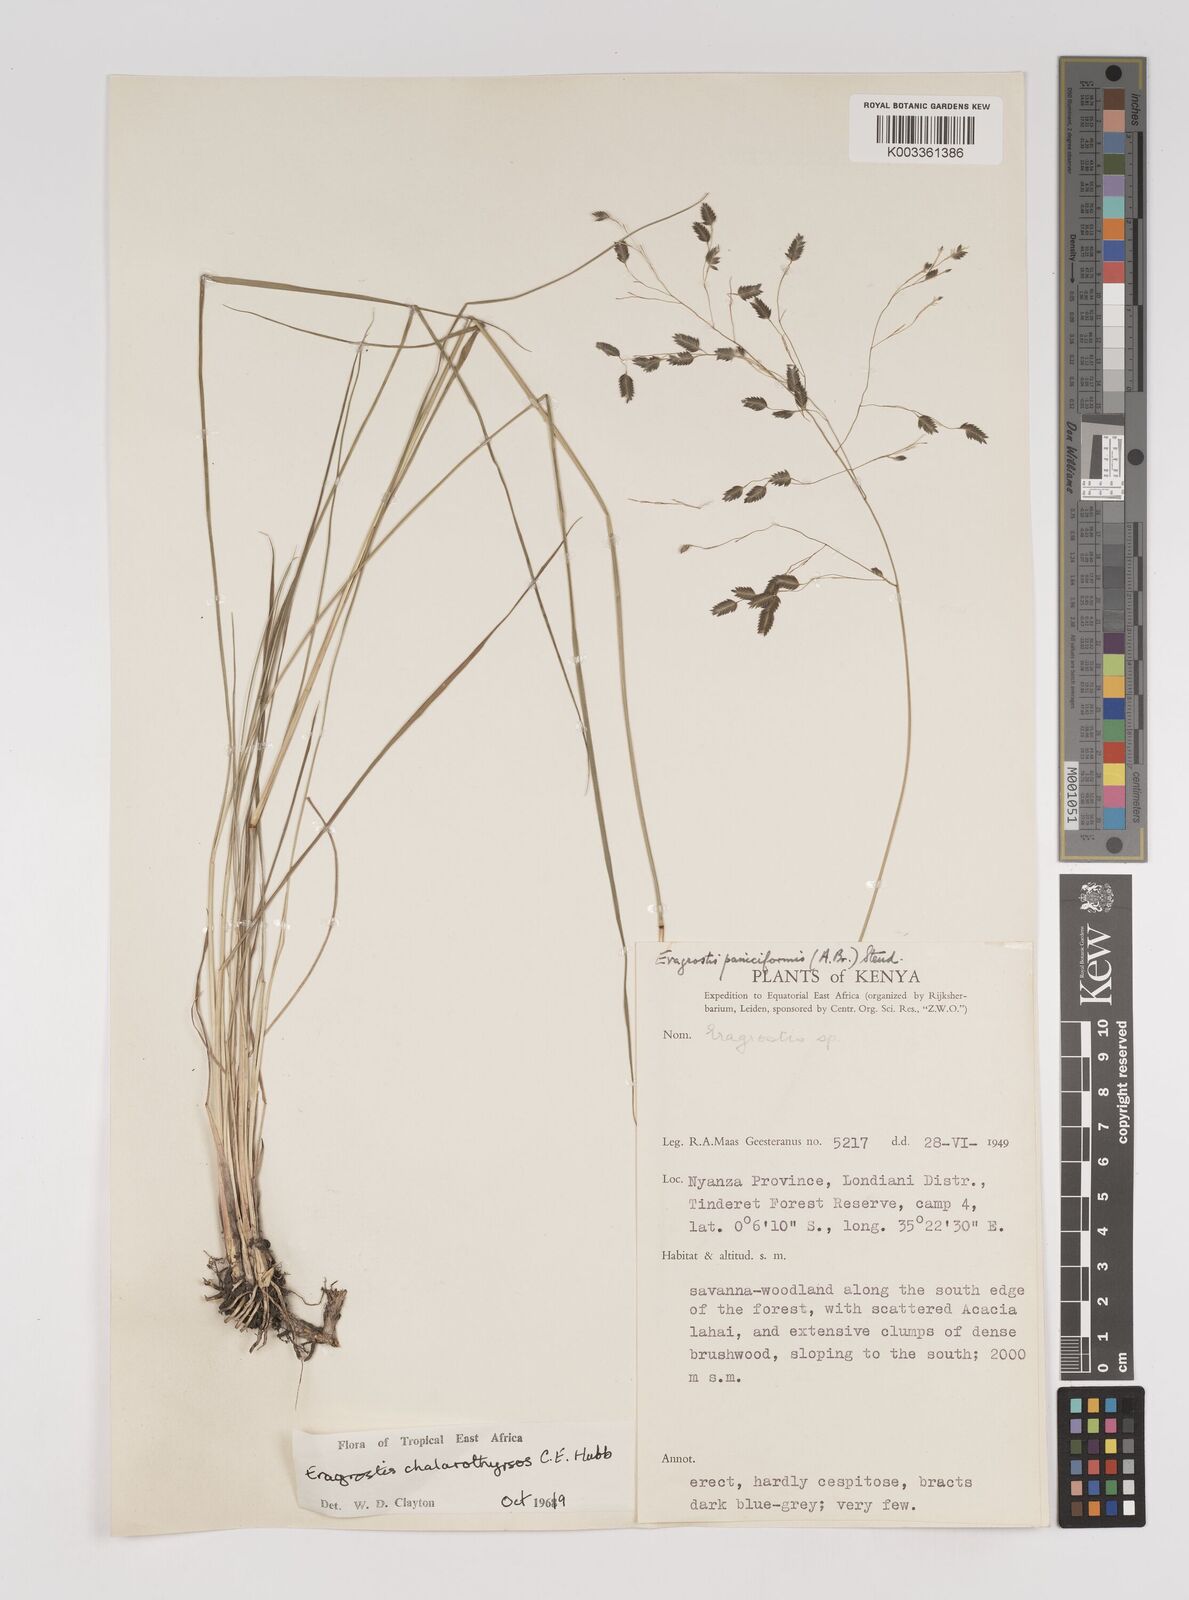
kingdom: Plantae
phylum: Tracheophyta
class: Liliopsida
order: Poales
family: Poaceae
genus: Eragrostis
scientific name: Eragrostis chalarothyrsos
